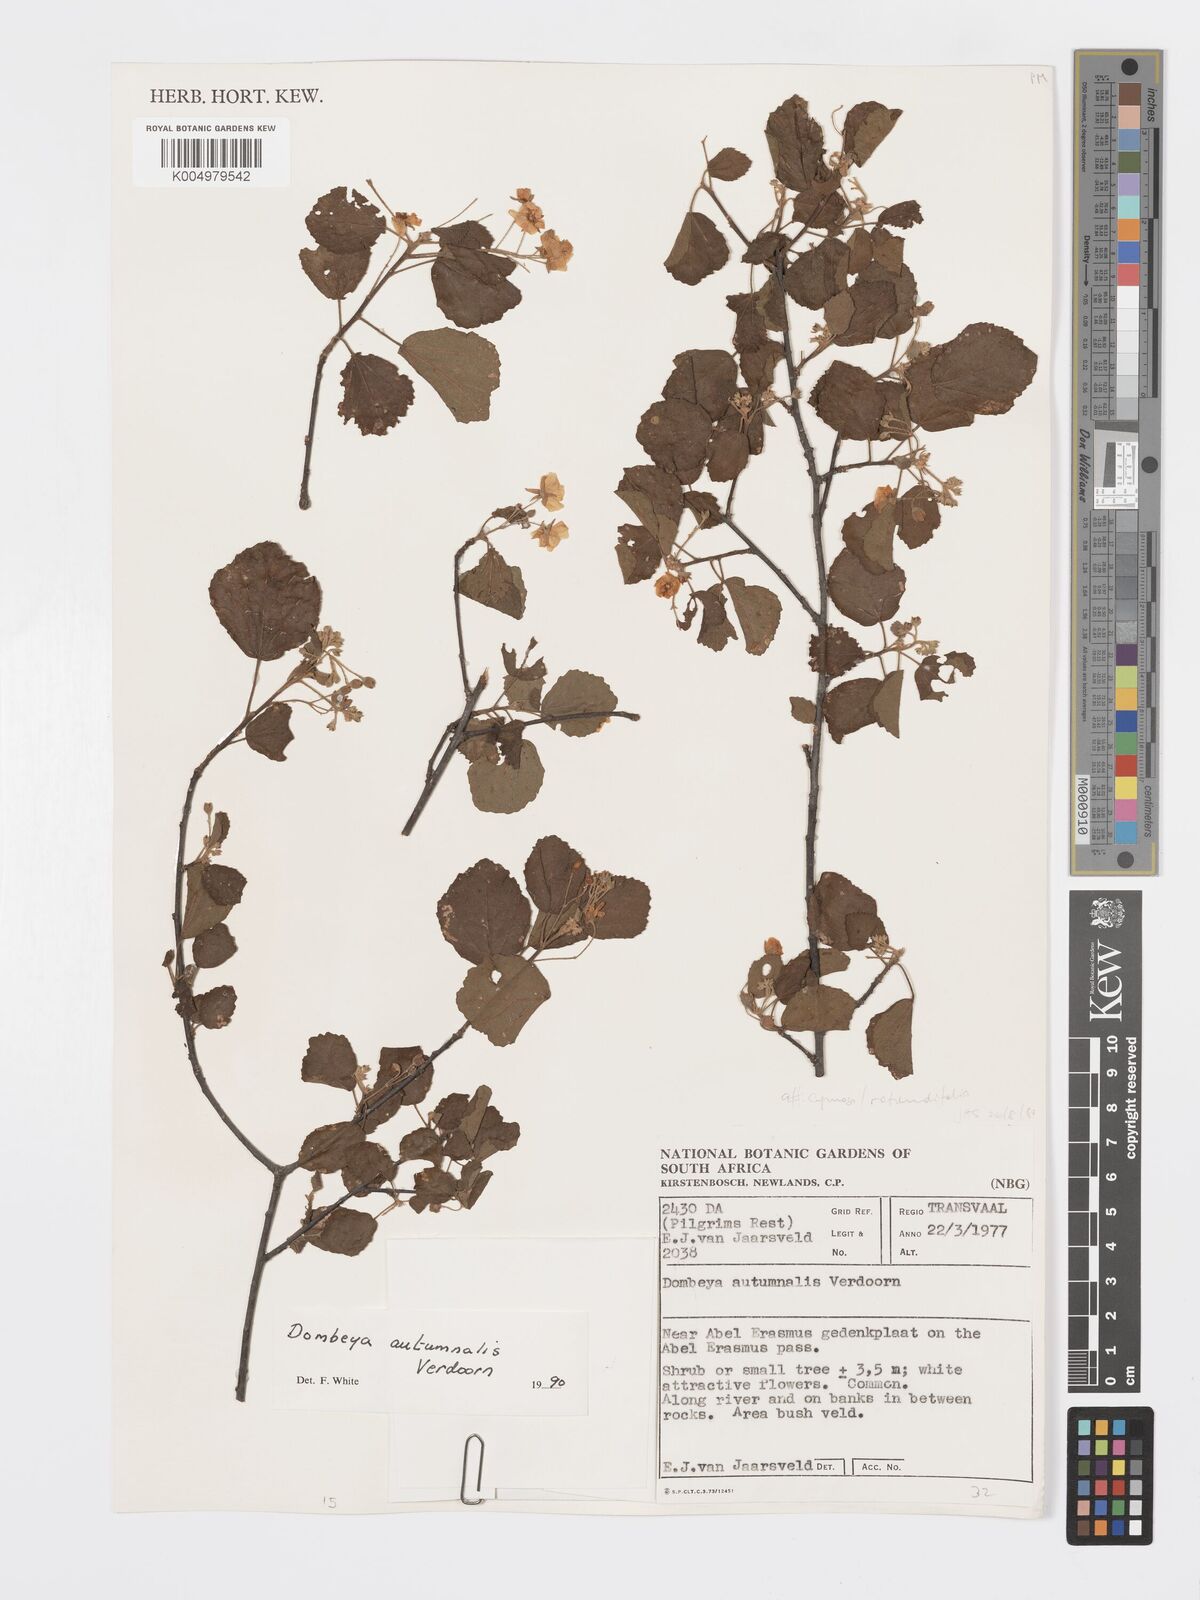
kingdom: Plantae
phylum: Tracheophyta
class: Magnoliopsida
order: Malvales
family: Malvaceae
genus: Dombeya
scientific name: Dombeya autumnalis
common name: Rock dombeya
